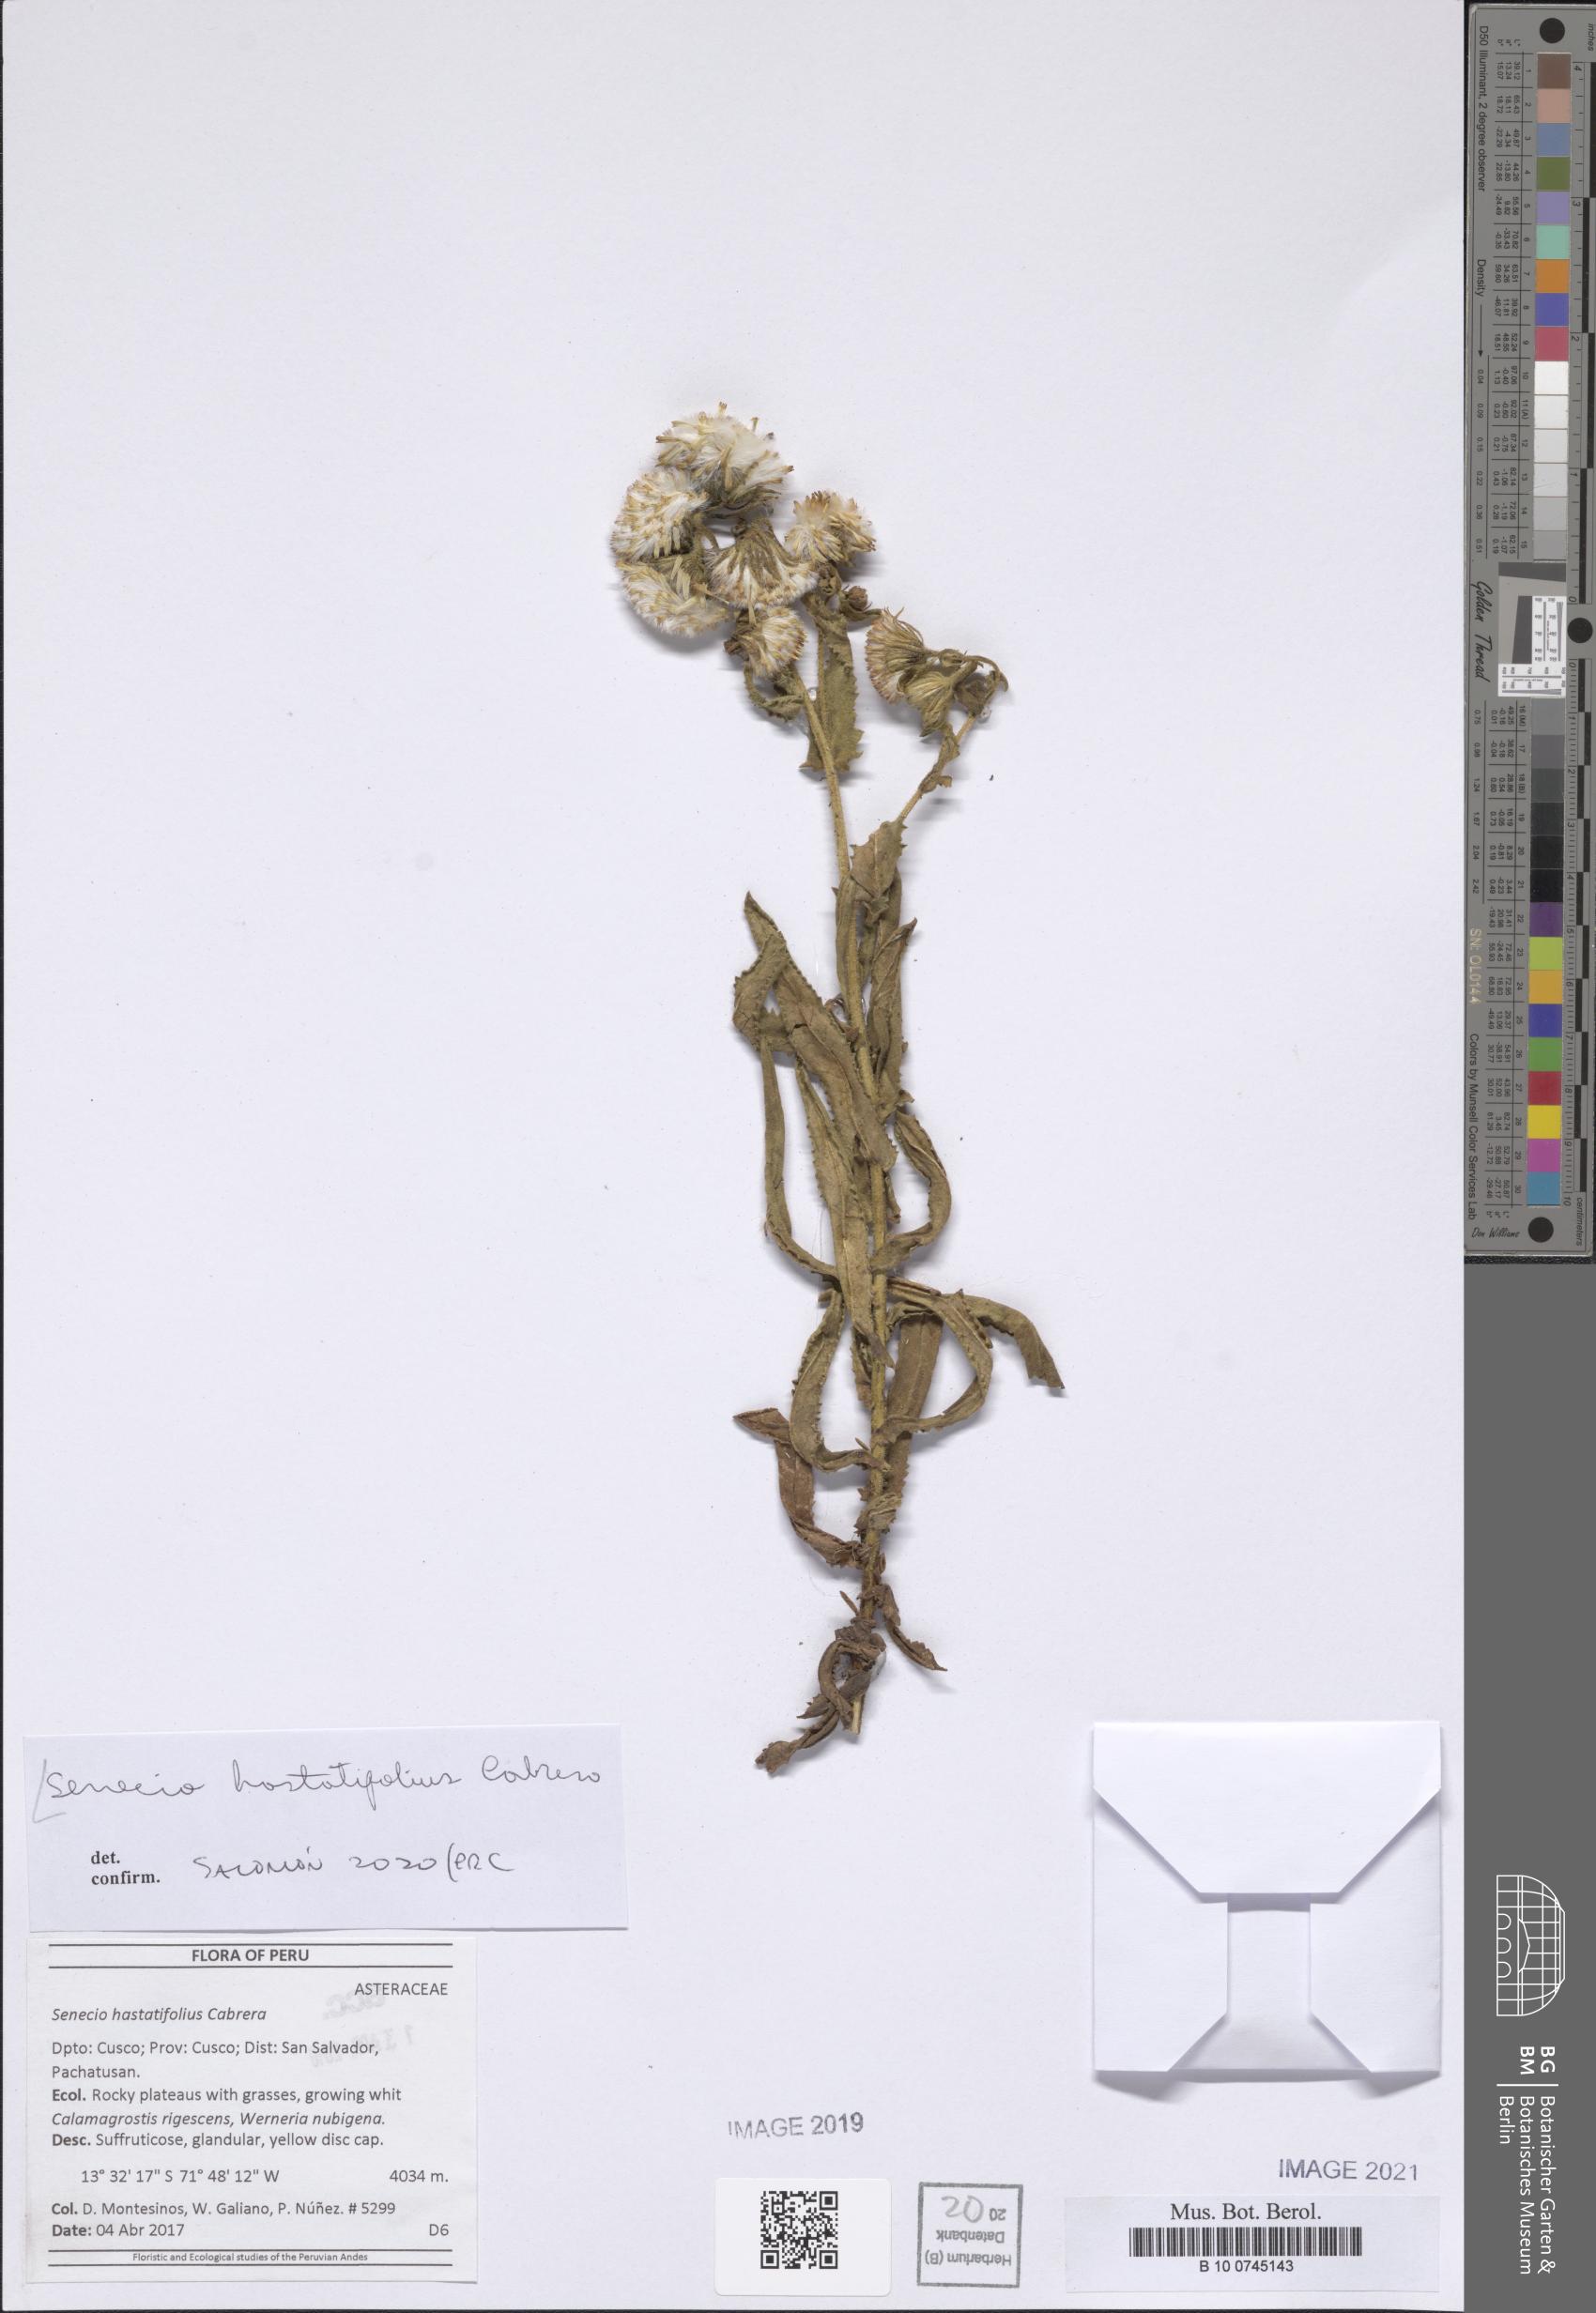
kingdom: Plantae
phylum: Tracheophyta
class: Magnoliopsida
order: Asterales
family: Asteraceae
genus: Senecio
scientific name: Senecio hastatifolius
